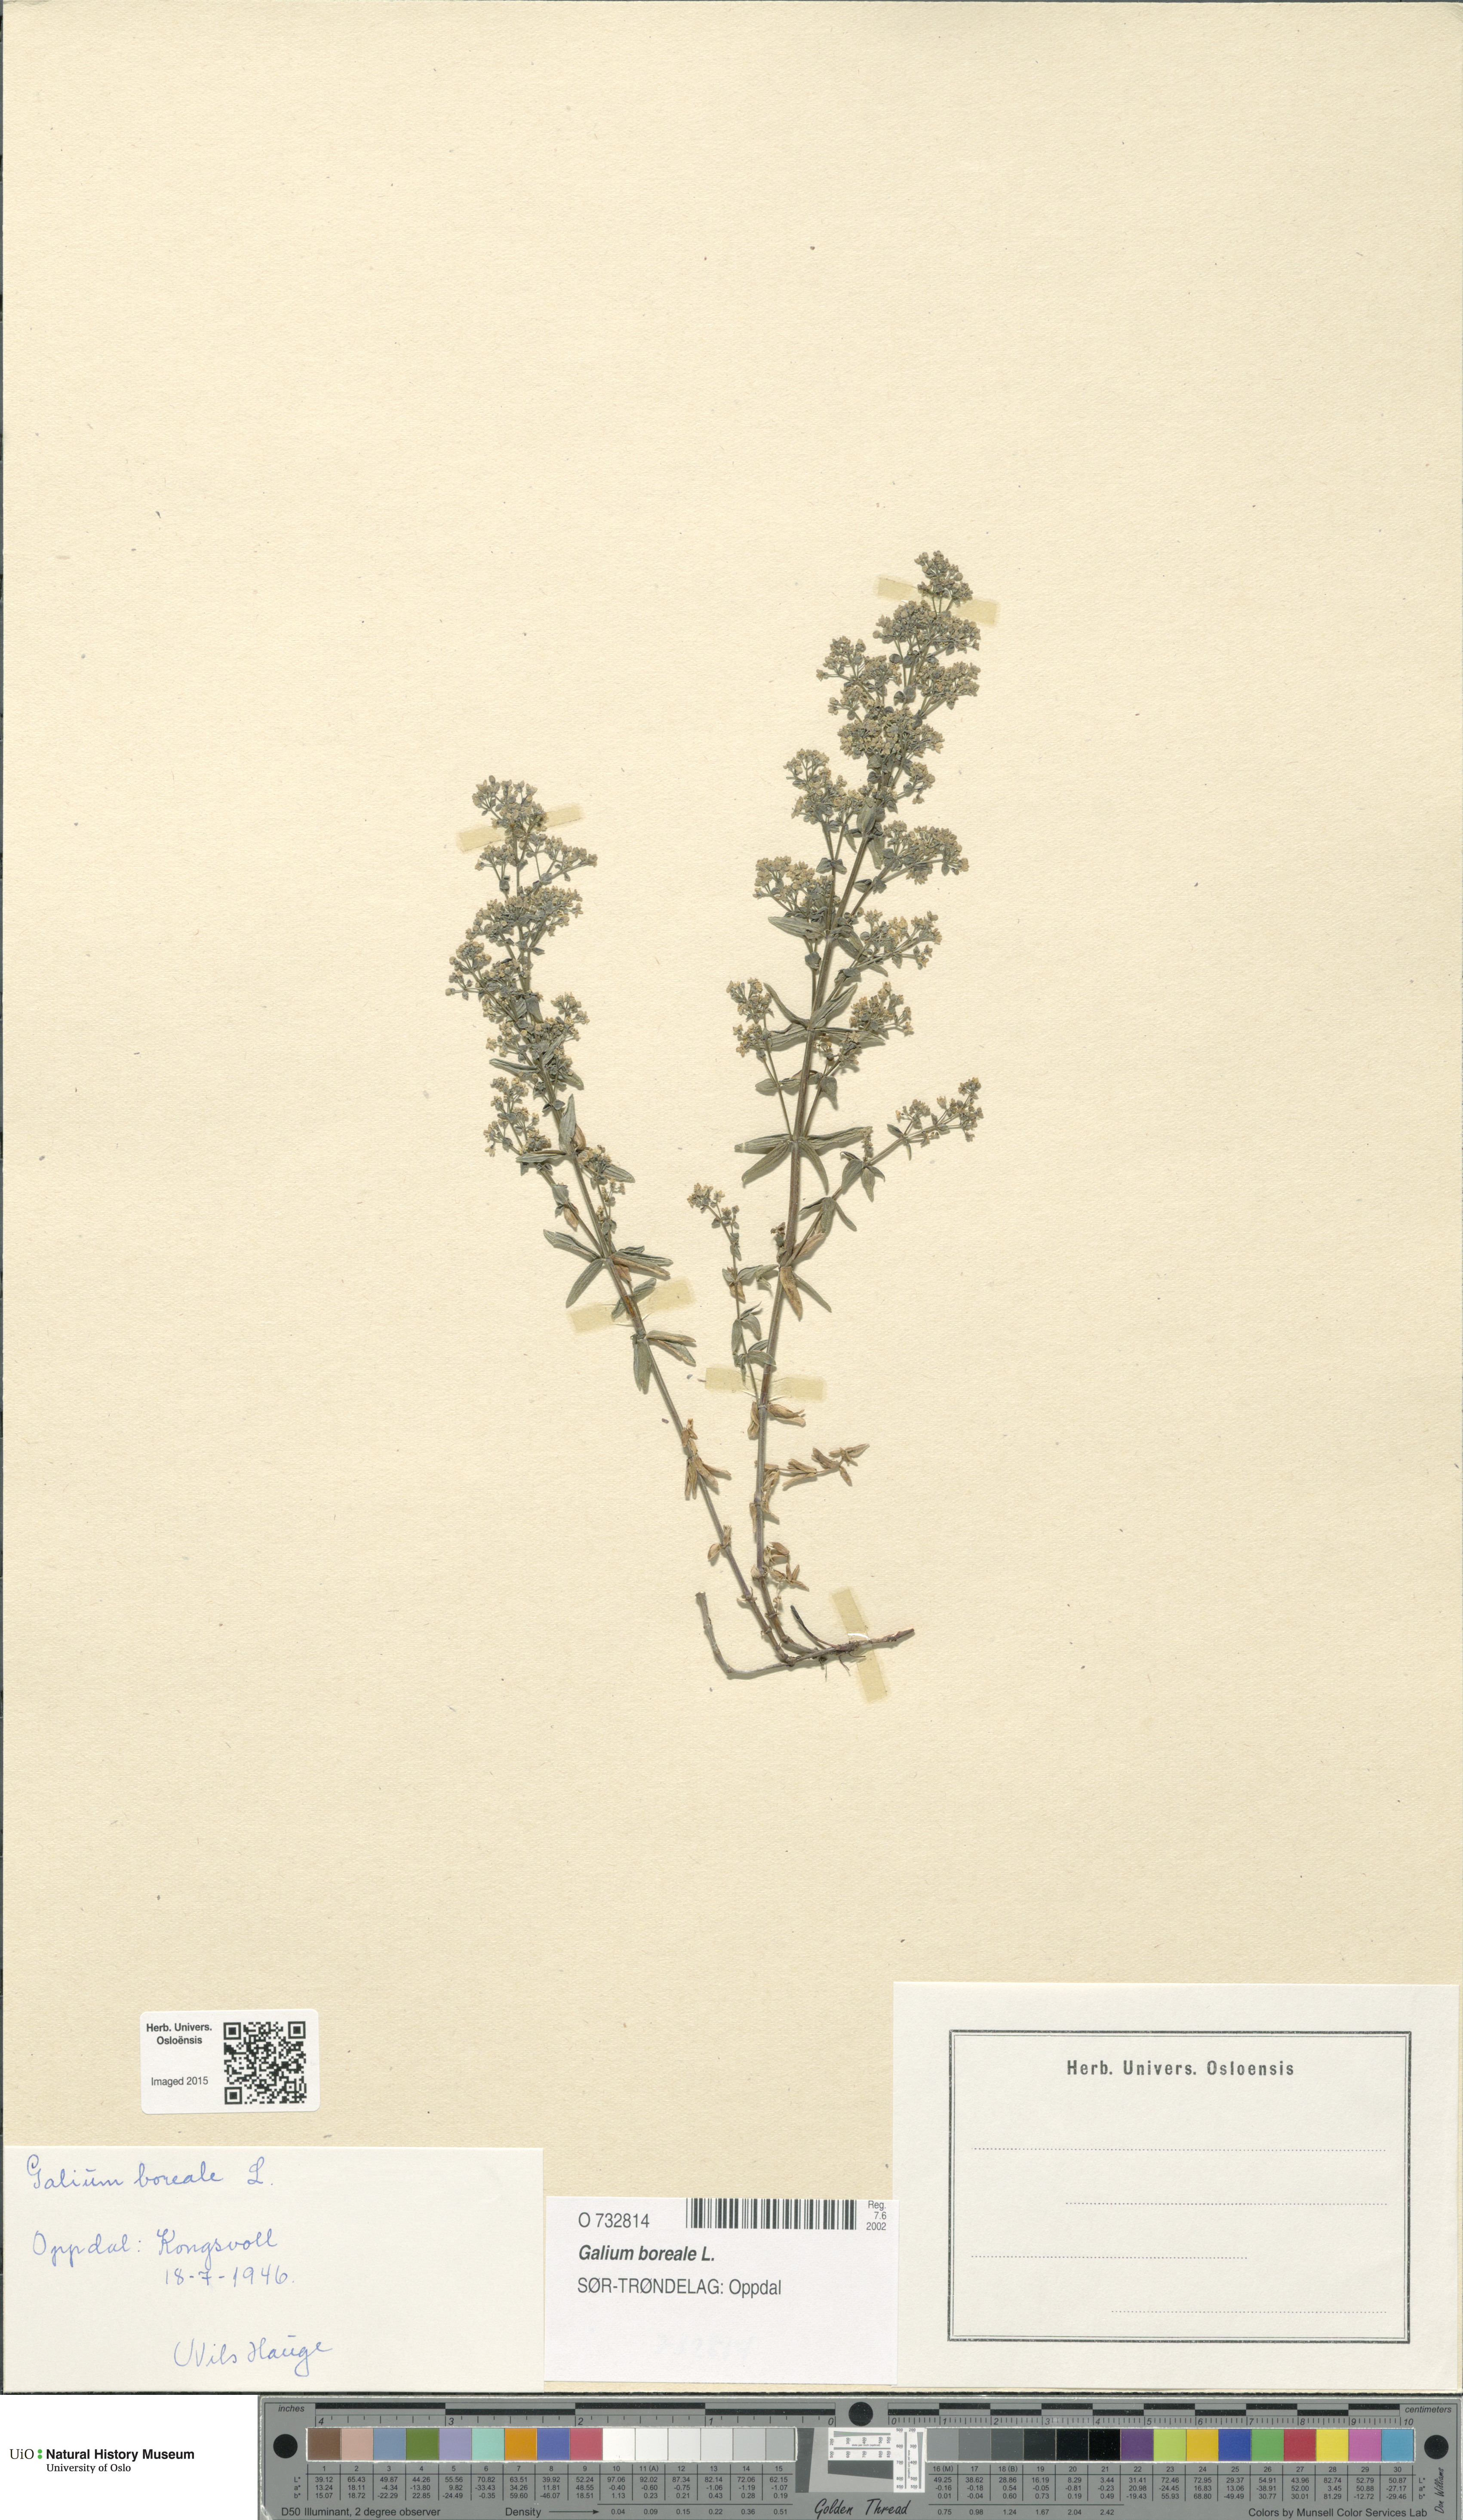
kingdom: Plantae
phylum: Tracheophyta
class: Magnoliopsida
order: Gentianales
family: Rubiaceae
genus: Galium
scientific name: Galium boreale
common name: Northern bedstraw
